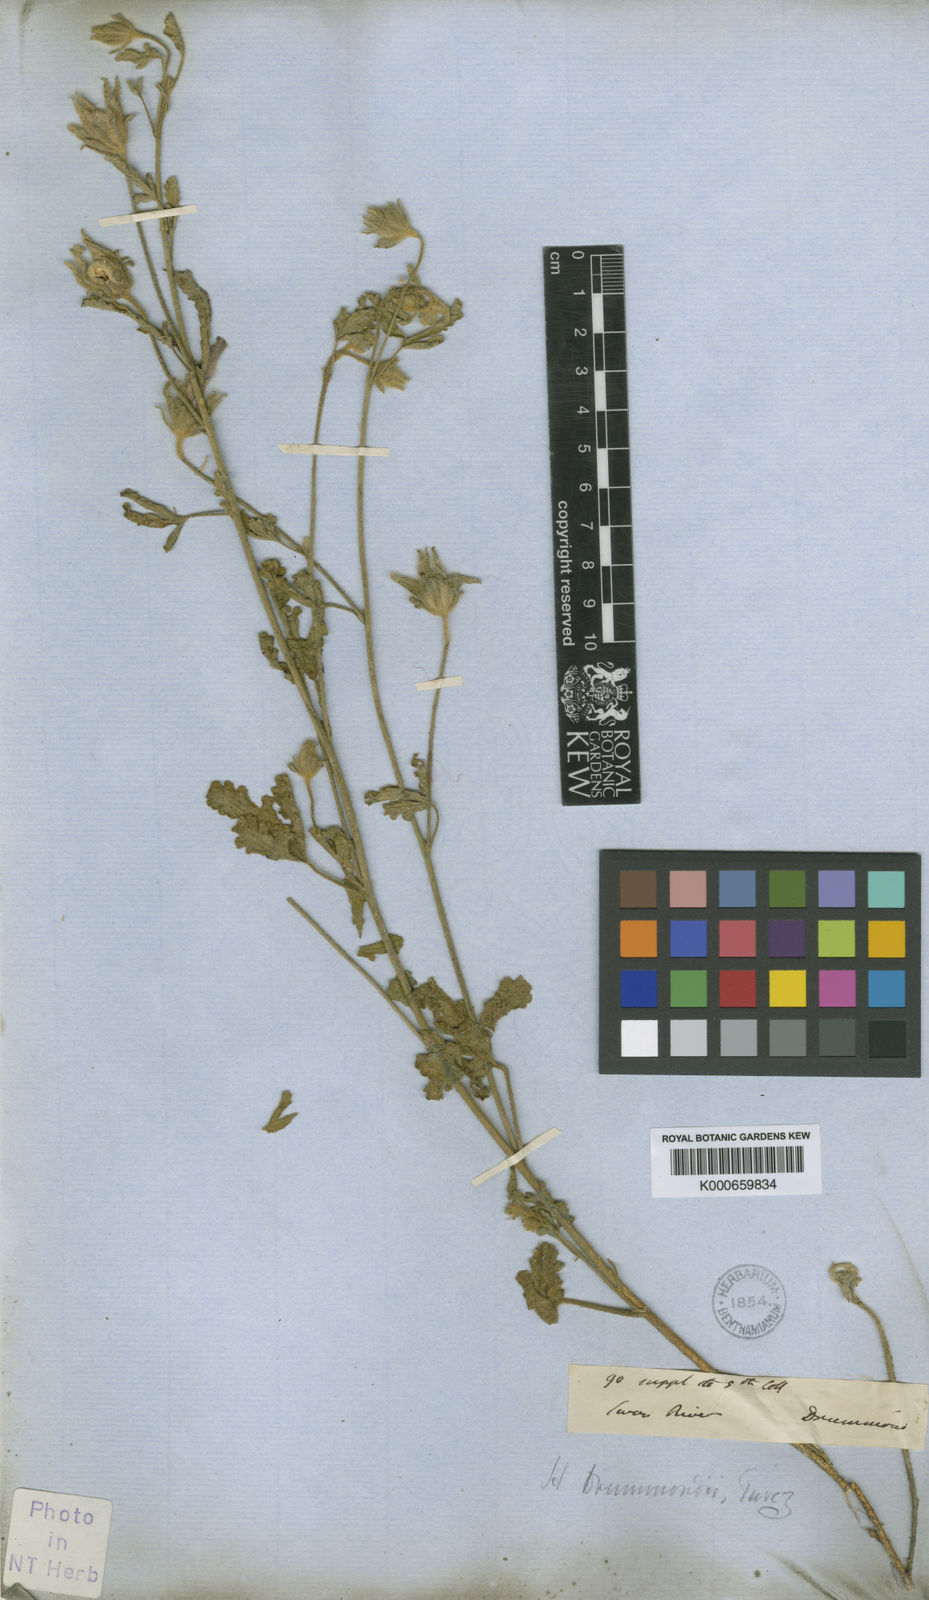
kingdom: Plantae
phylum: Tracheophyta
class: Magnoliopsida
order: Malvales
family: Malvaceae
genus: Hibiscus
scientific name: Hibiscus drummondii
